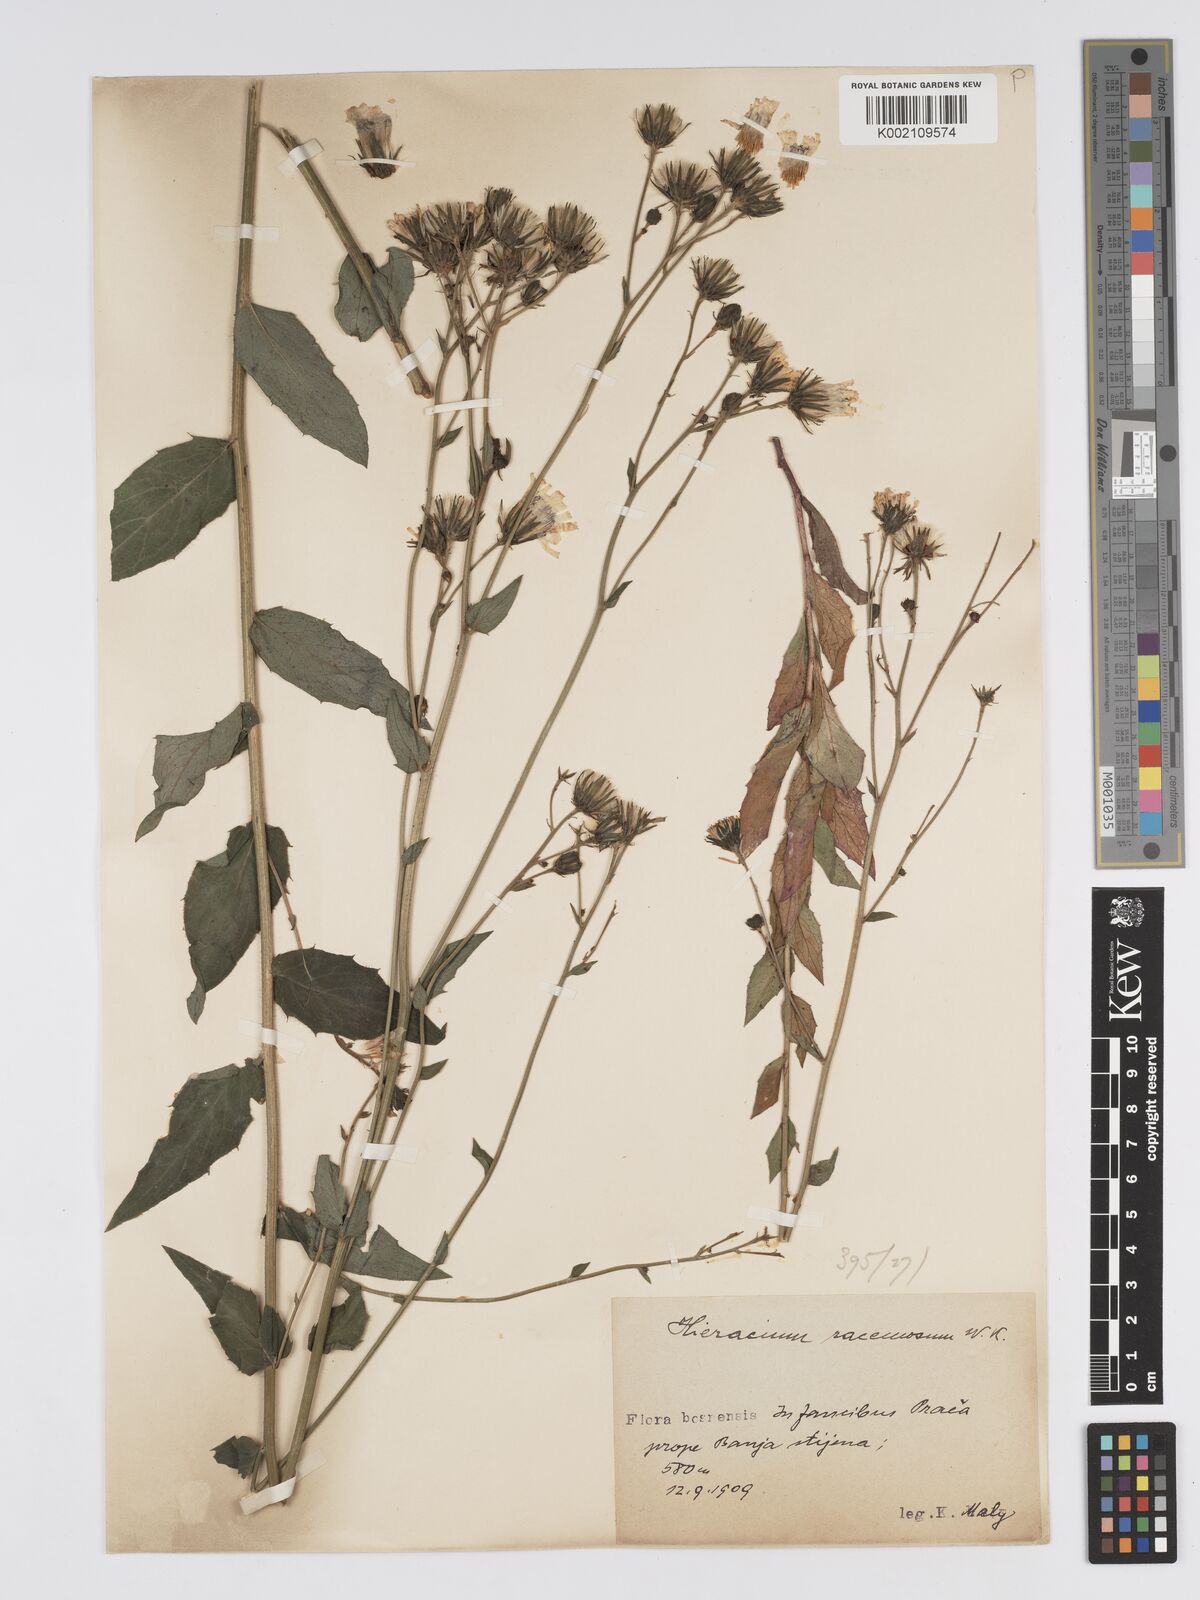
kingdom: Plantae
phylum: Tracheophyta
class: Magnoliopsida
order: Asterales
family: Asteraceae
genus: Hieracium
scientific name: Hieracium racemosum
